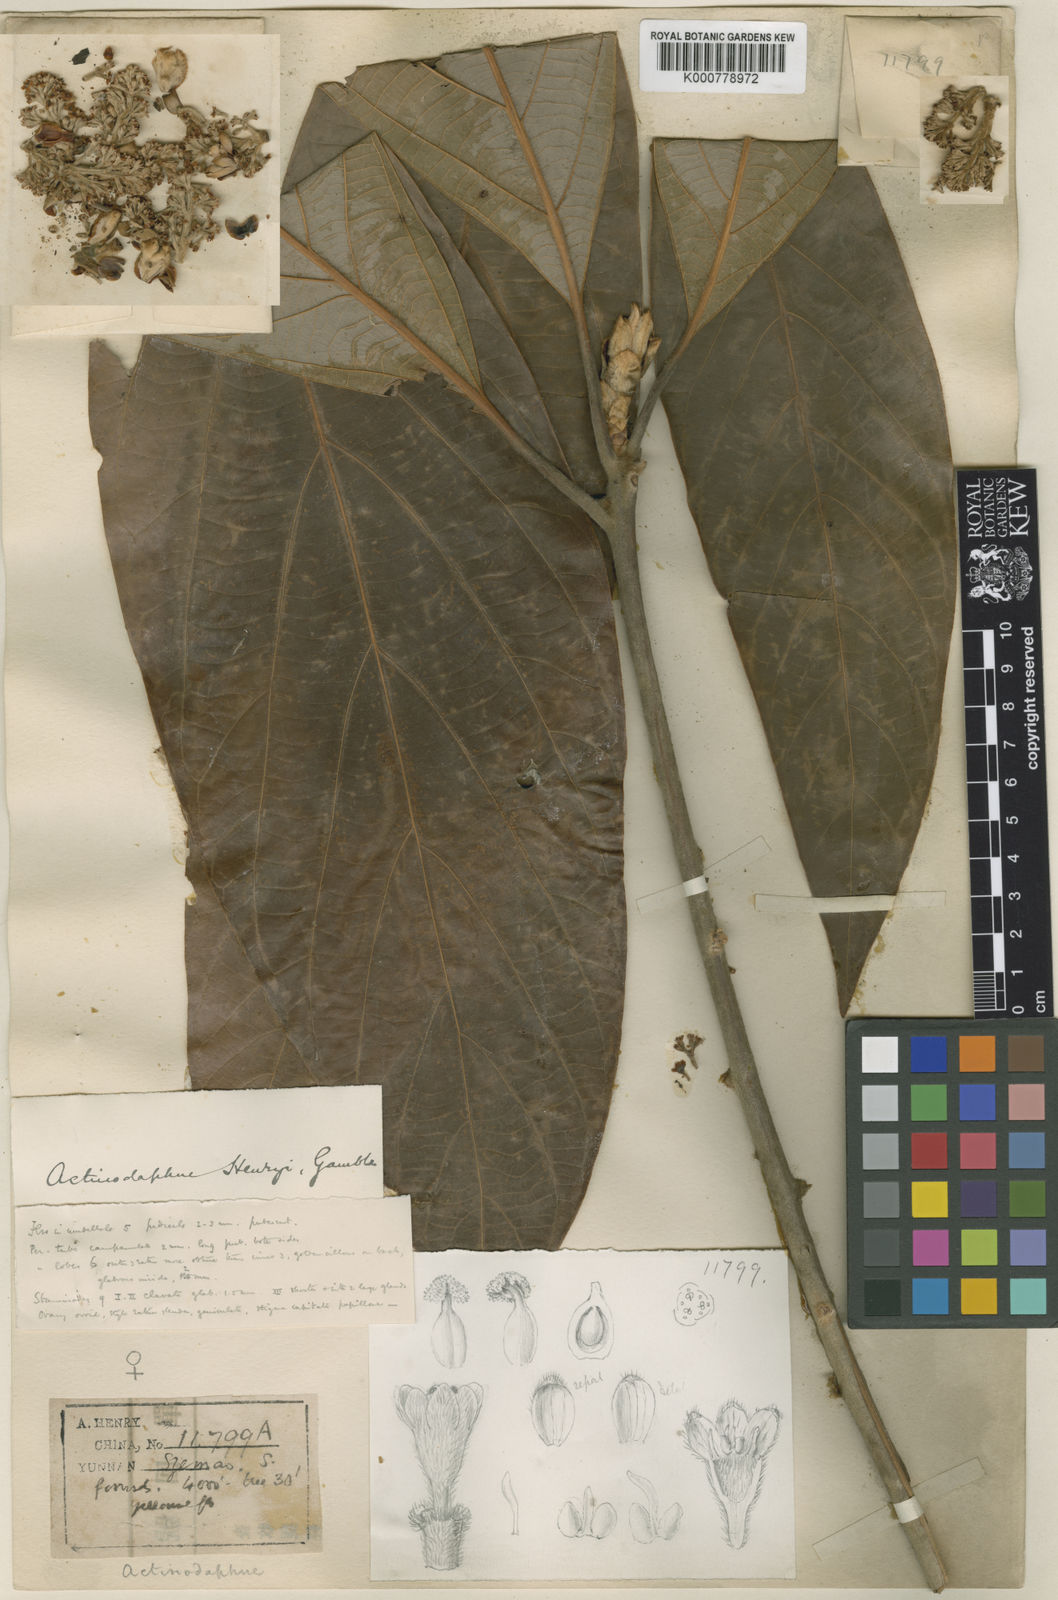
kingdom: Plantae
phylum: Tracheophyta
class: Magnoliopsida
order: Laurales
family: Lauraceae
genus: Actinodaphne
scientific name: Actinodaphne henryi
